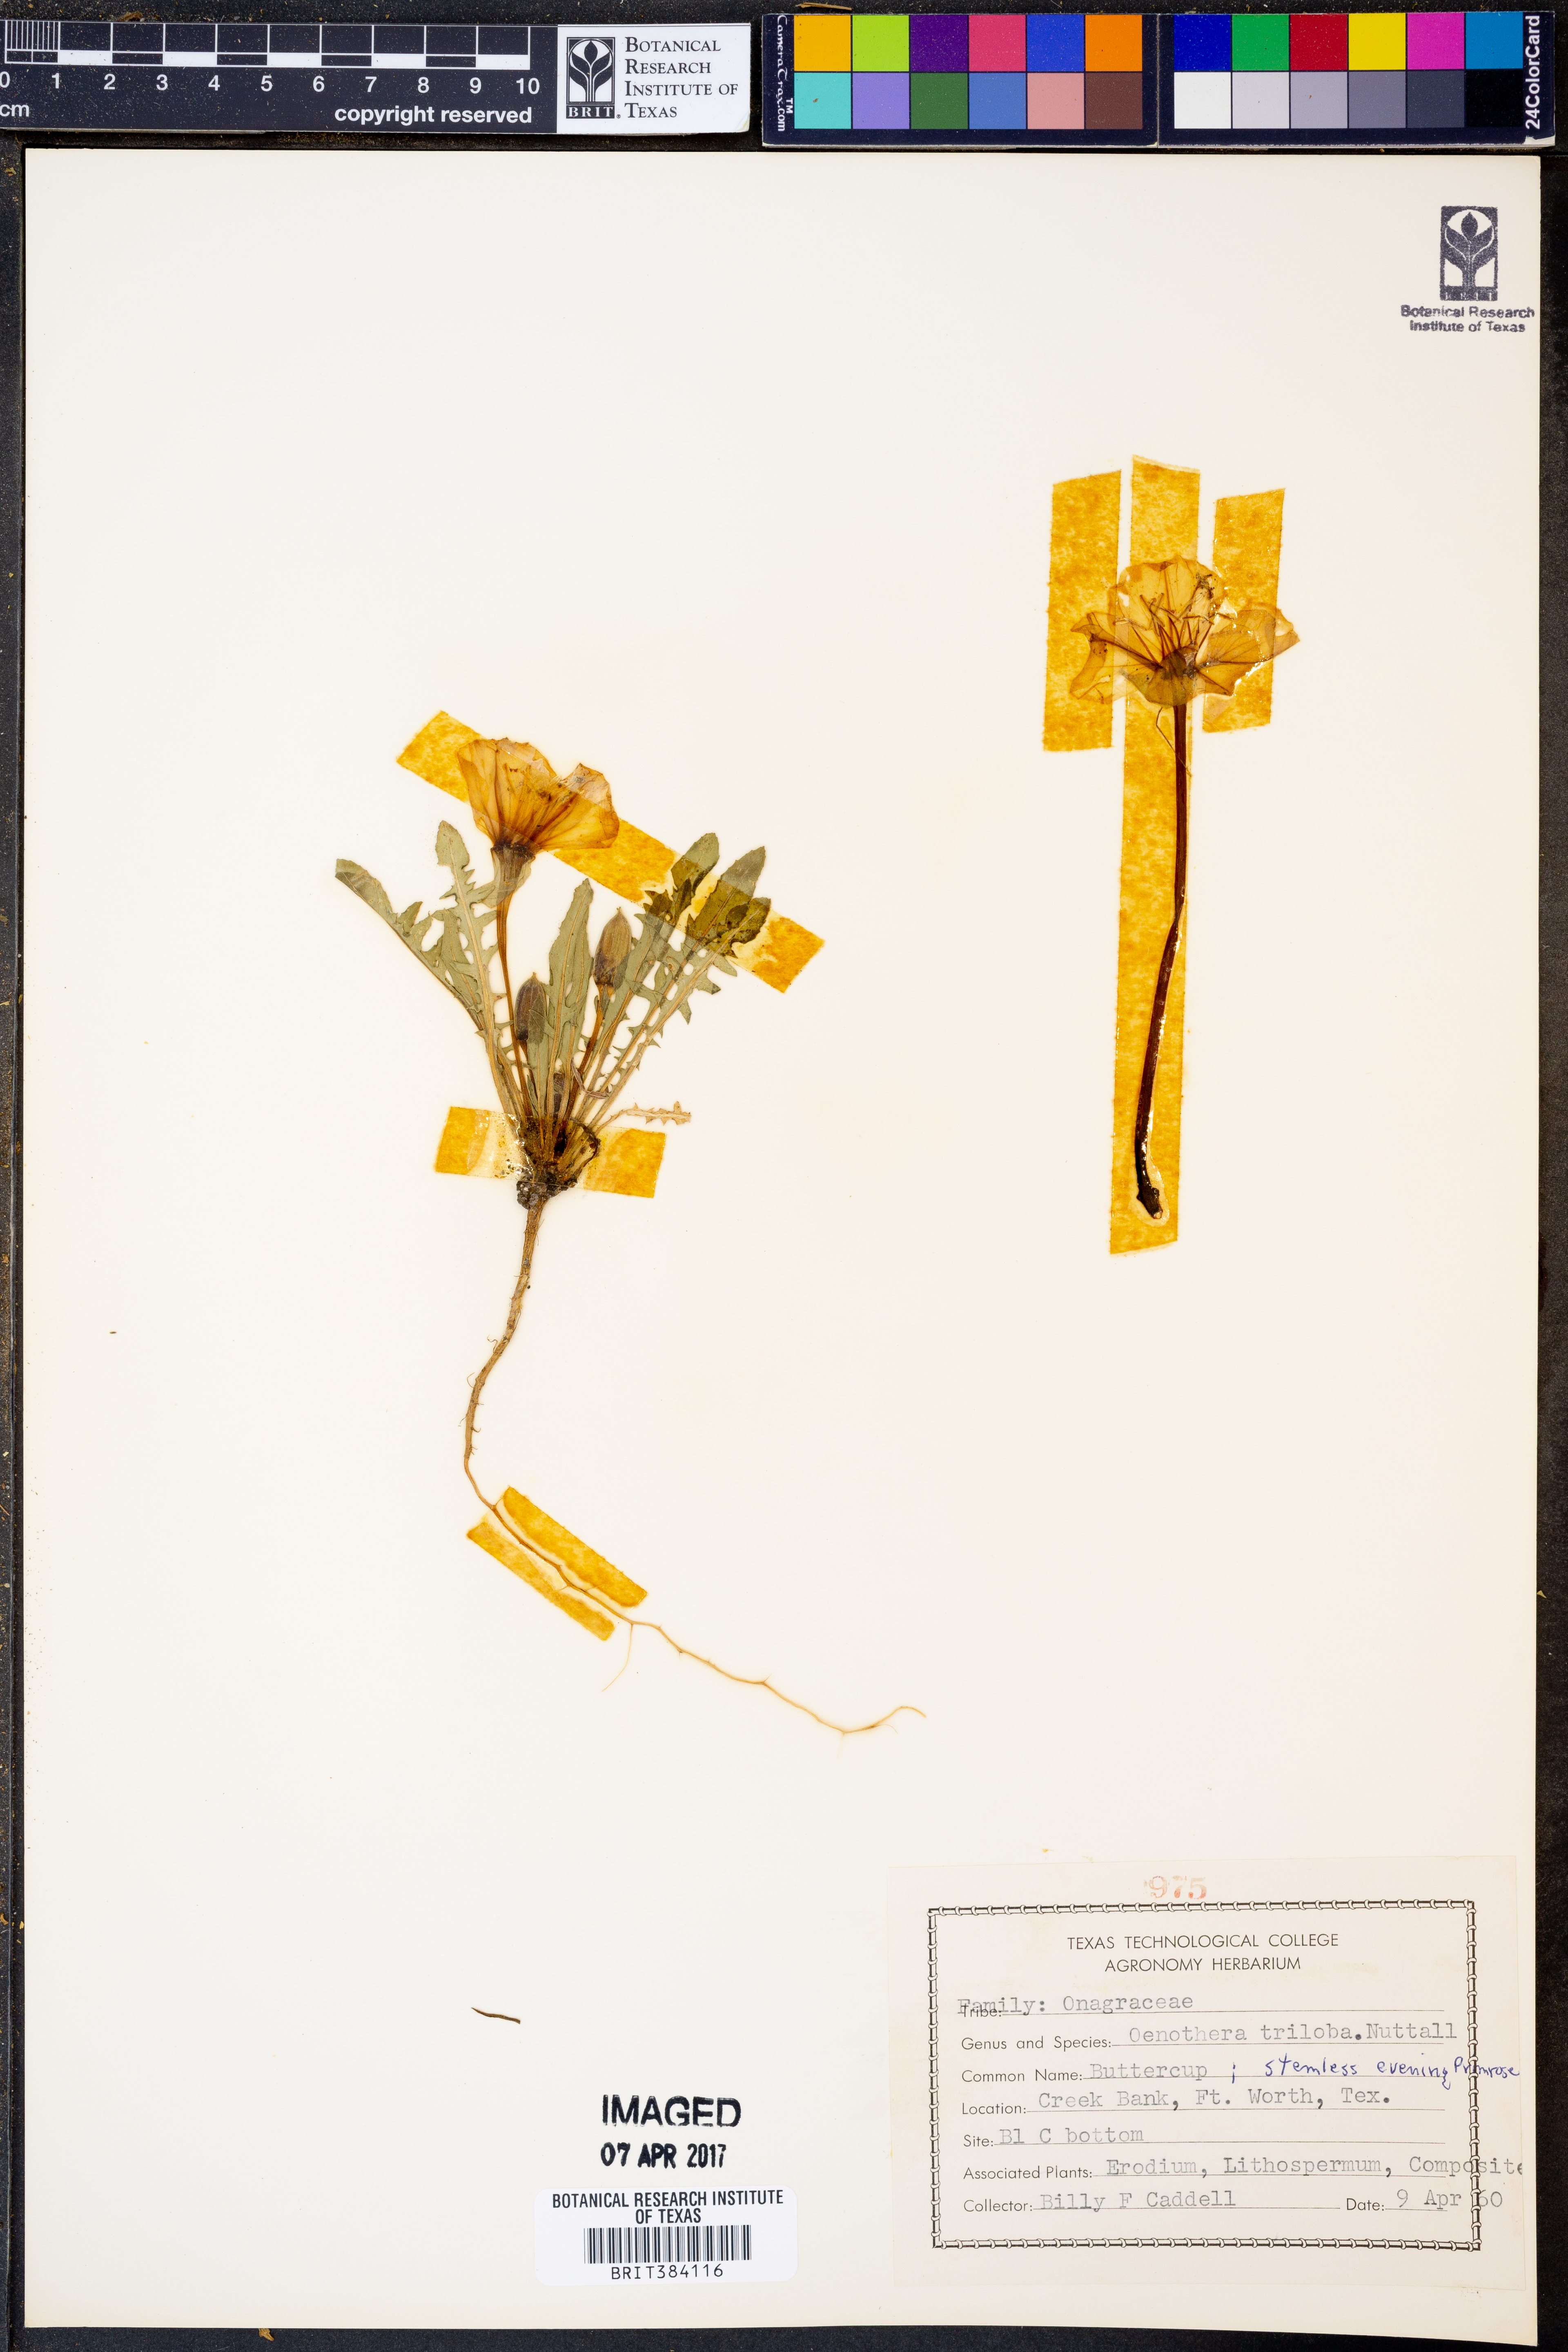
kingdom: Plantae
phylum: Tracheophyta
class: Magnoliopsida
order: Myrtales
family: Onagraceae
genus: Oenothera
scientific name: Oenothera triloba
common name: Sessile evening-primrose
